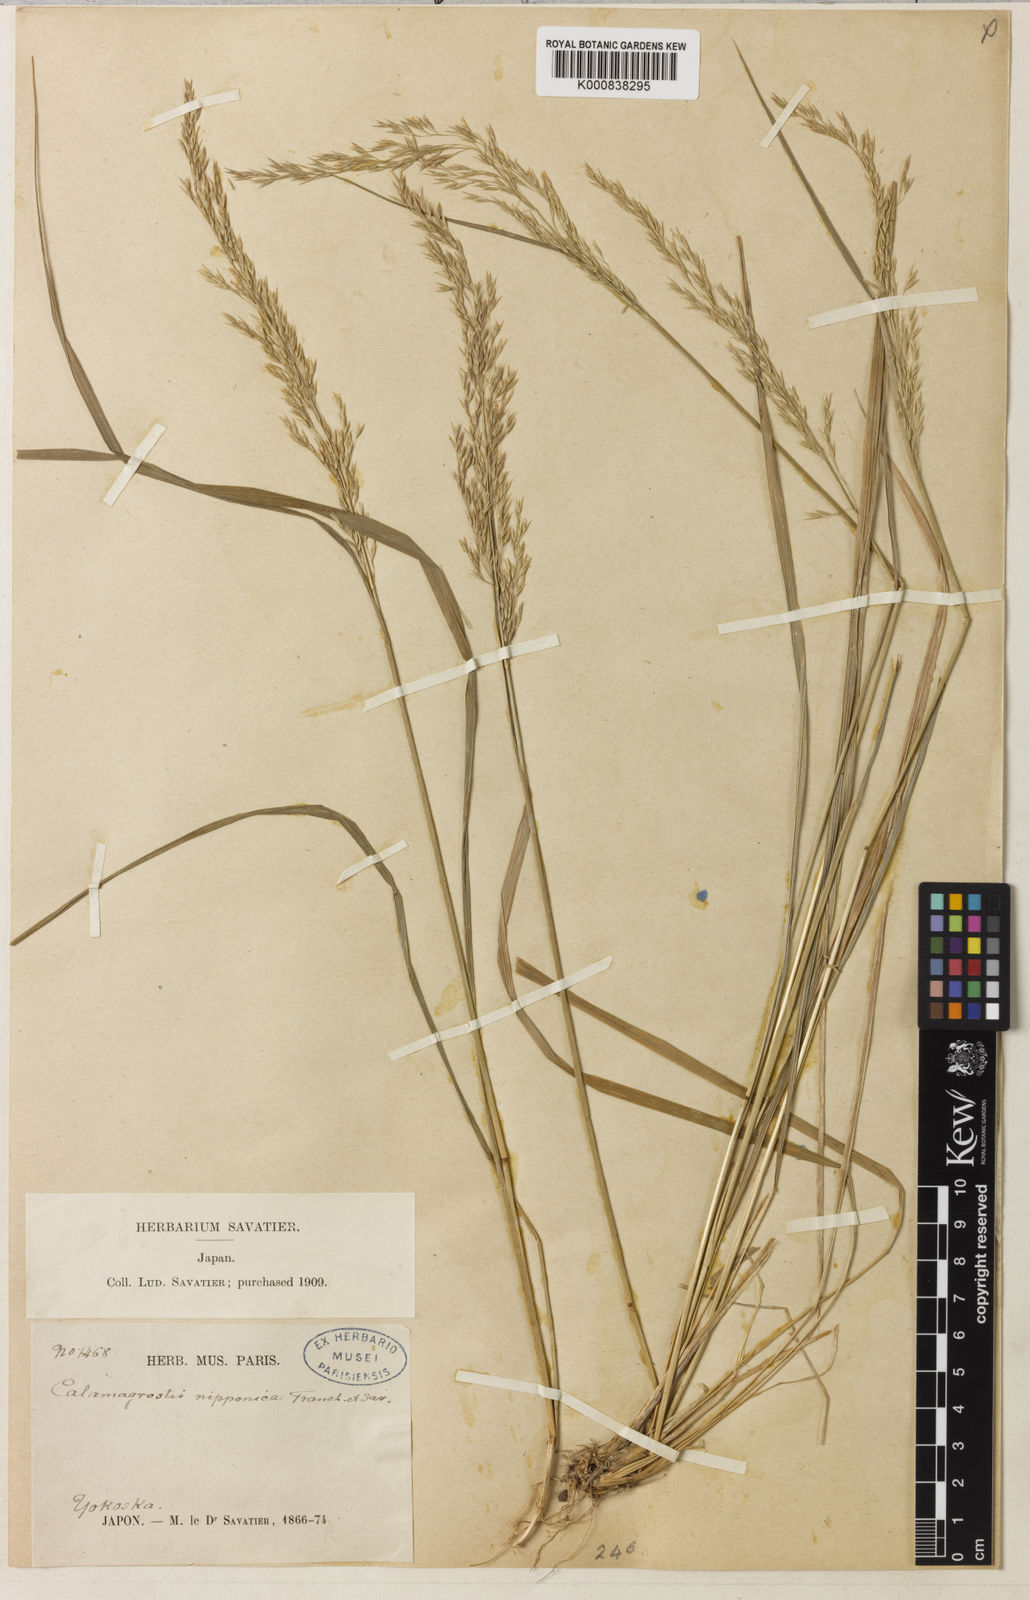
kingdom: Plantae
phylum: Tracheophyta
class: Liliopsida
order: Poales
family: Poaceae
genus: Calamagrostis
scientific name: Calamagrostis arundinacea
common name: Metskastik
